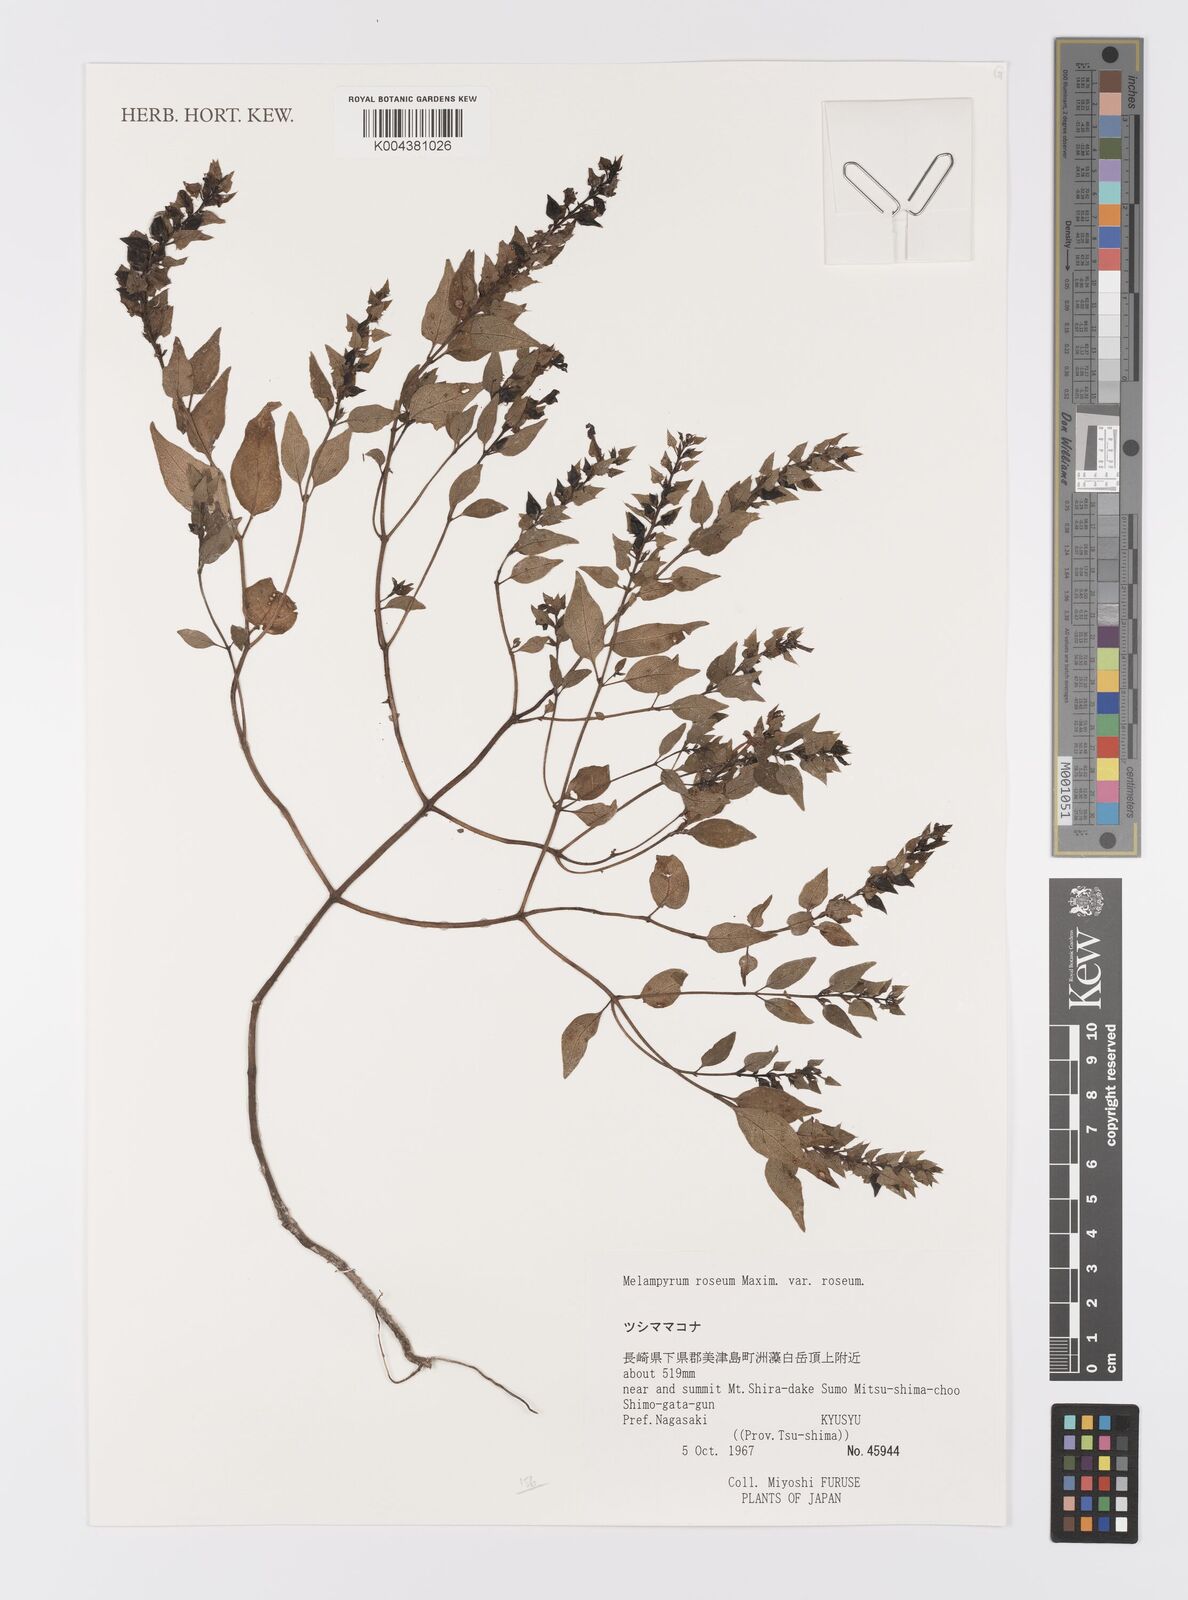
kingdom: Plantae
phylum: Tracheophyta
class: Magnoliopsida
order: Lamiales
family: Orobanchaceae
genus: Melampyrum
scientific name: Melampyrum roseum
